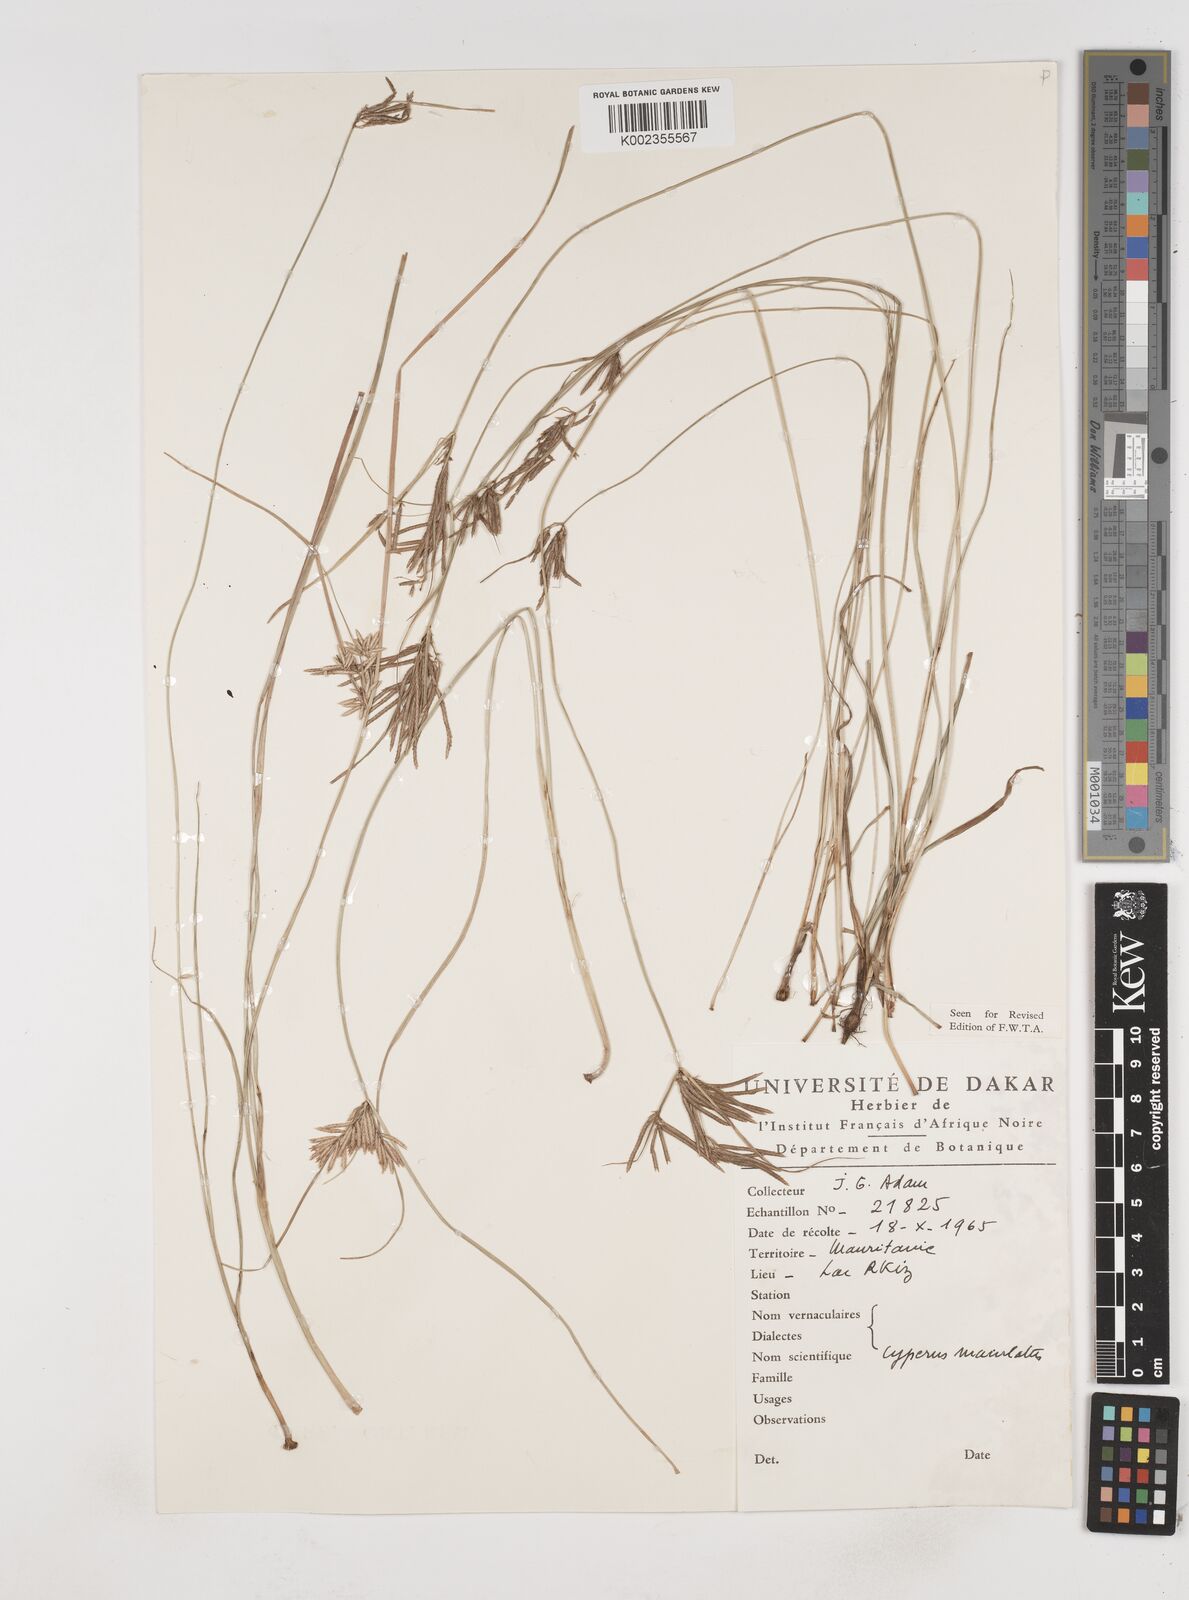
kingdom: Plantae
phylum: Tracheophyta
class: Liliopsida
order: Poales
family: Cyperaceae
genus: Cyperus
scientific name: Cyperus maculatus
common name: Maculated sedge
